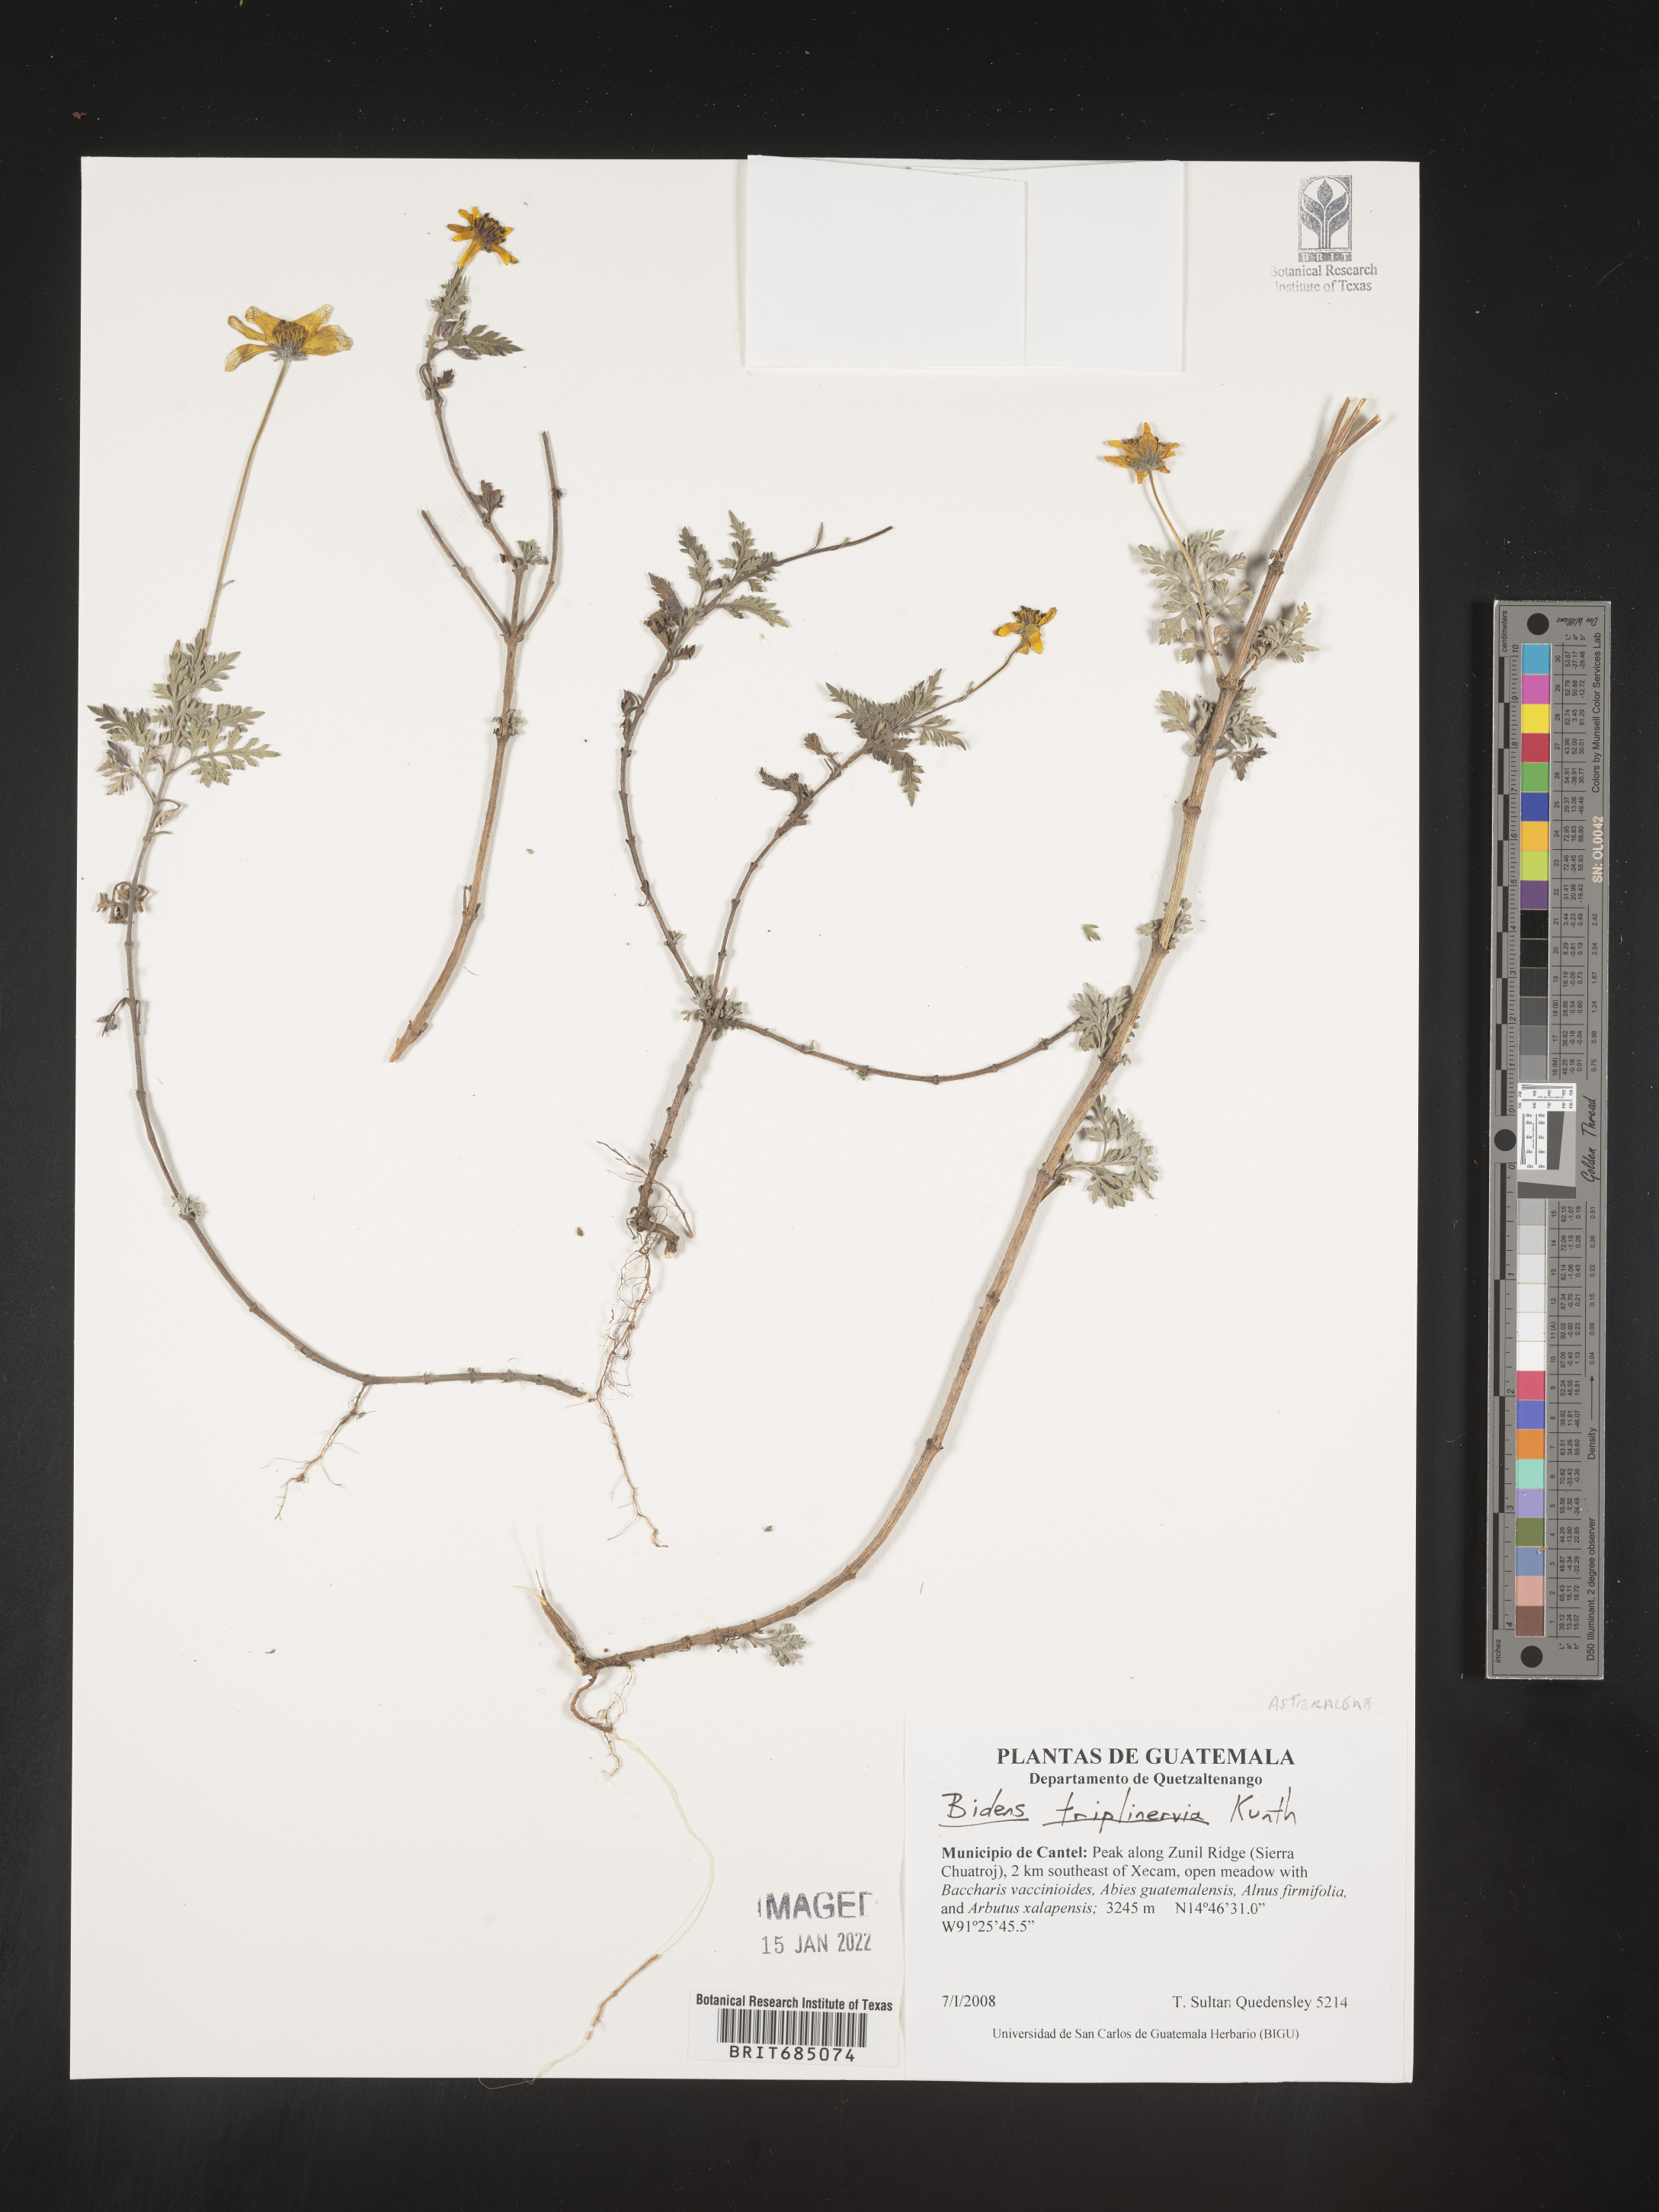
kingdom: Plantae
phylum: Tracheophyta
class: Magnoliopsida
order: Asterales
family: Asteraceae
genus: Bidens
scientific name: Bidens
